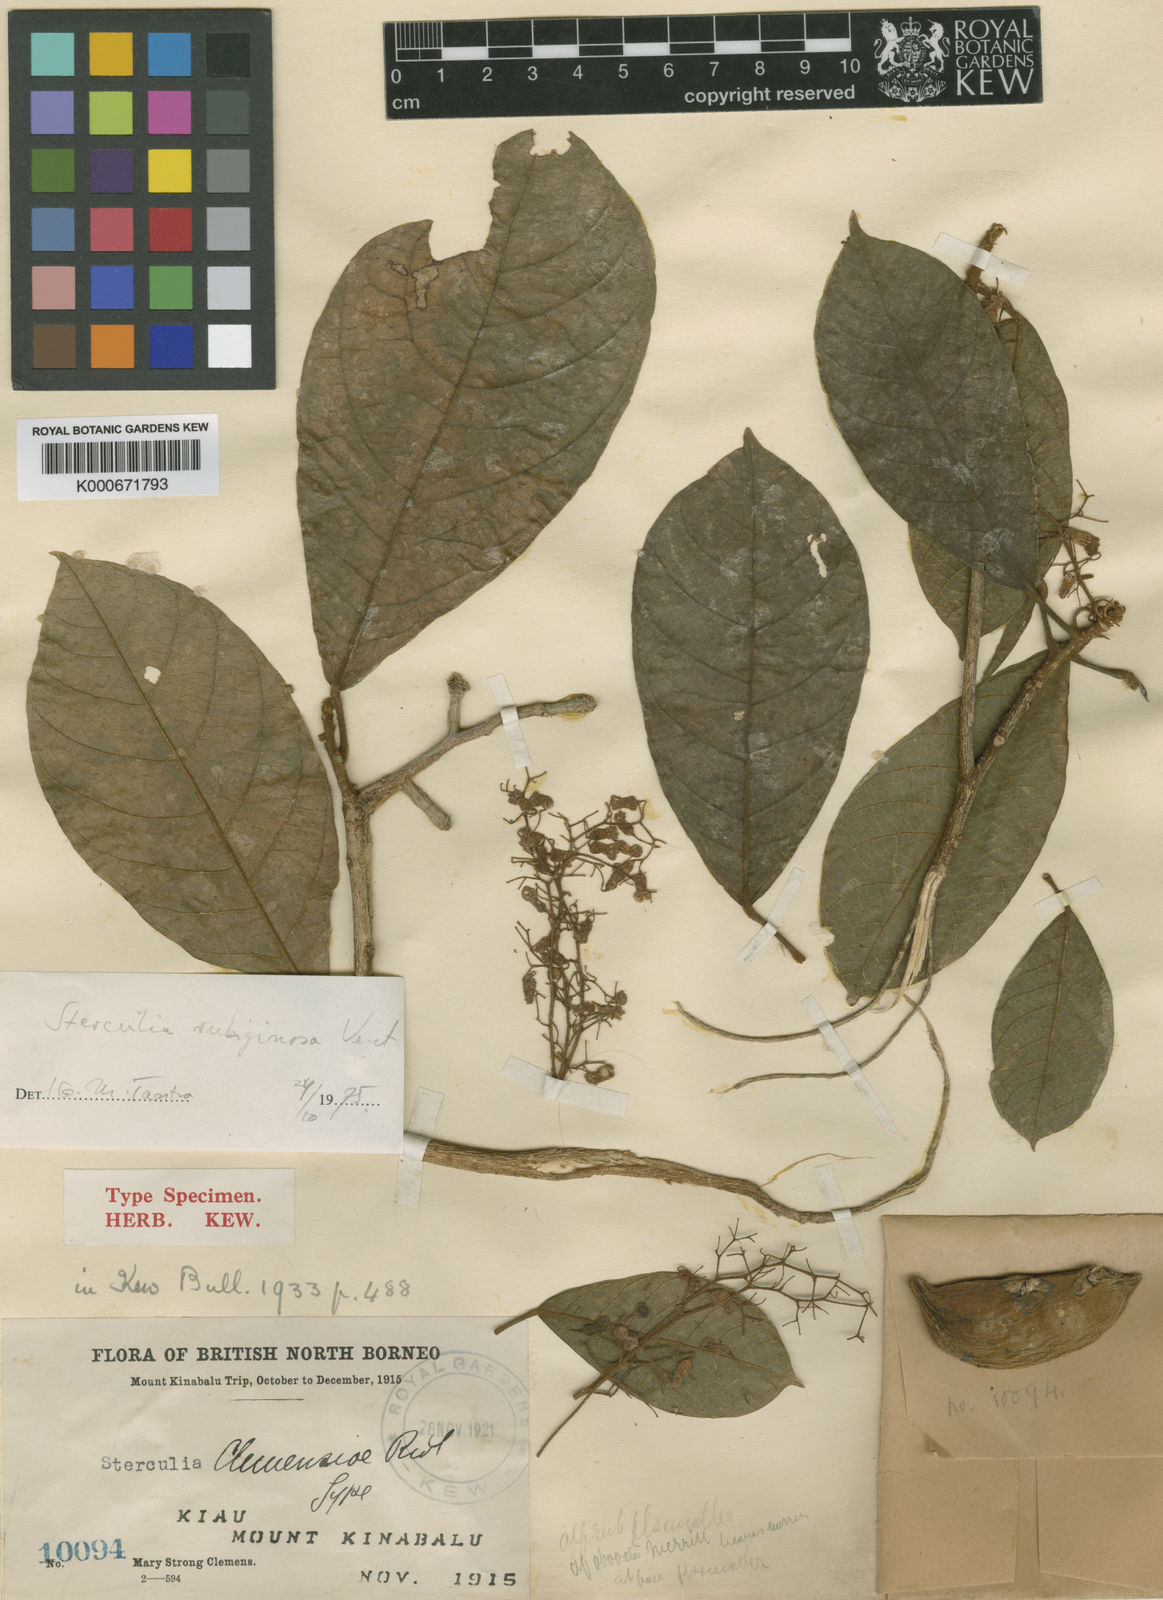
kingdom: Plantae
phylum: Tracheophyta
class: Magnoliopsida
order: Malvales
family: Malvaceae
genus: Sterculia
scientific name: Sterculia rubiginosa
